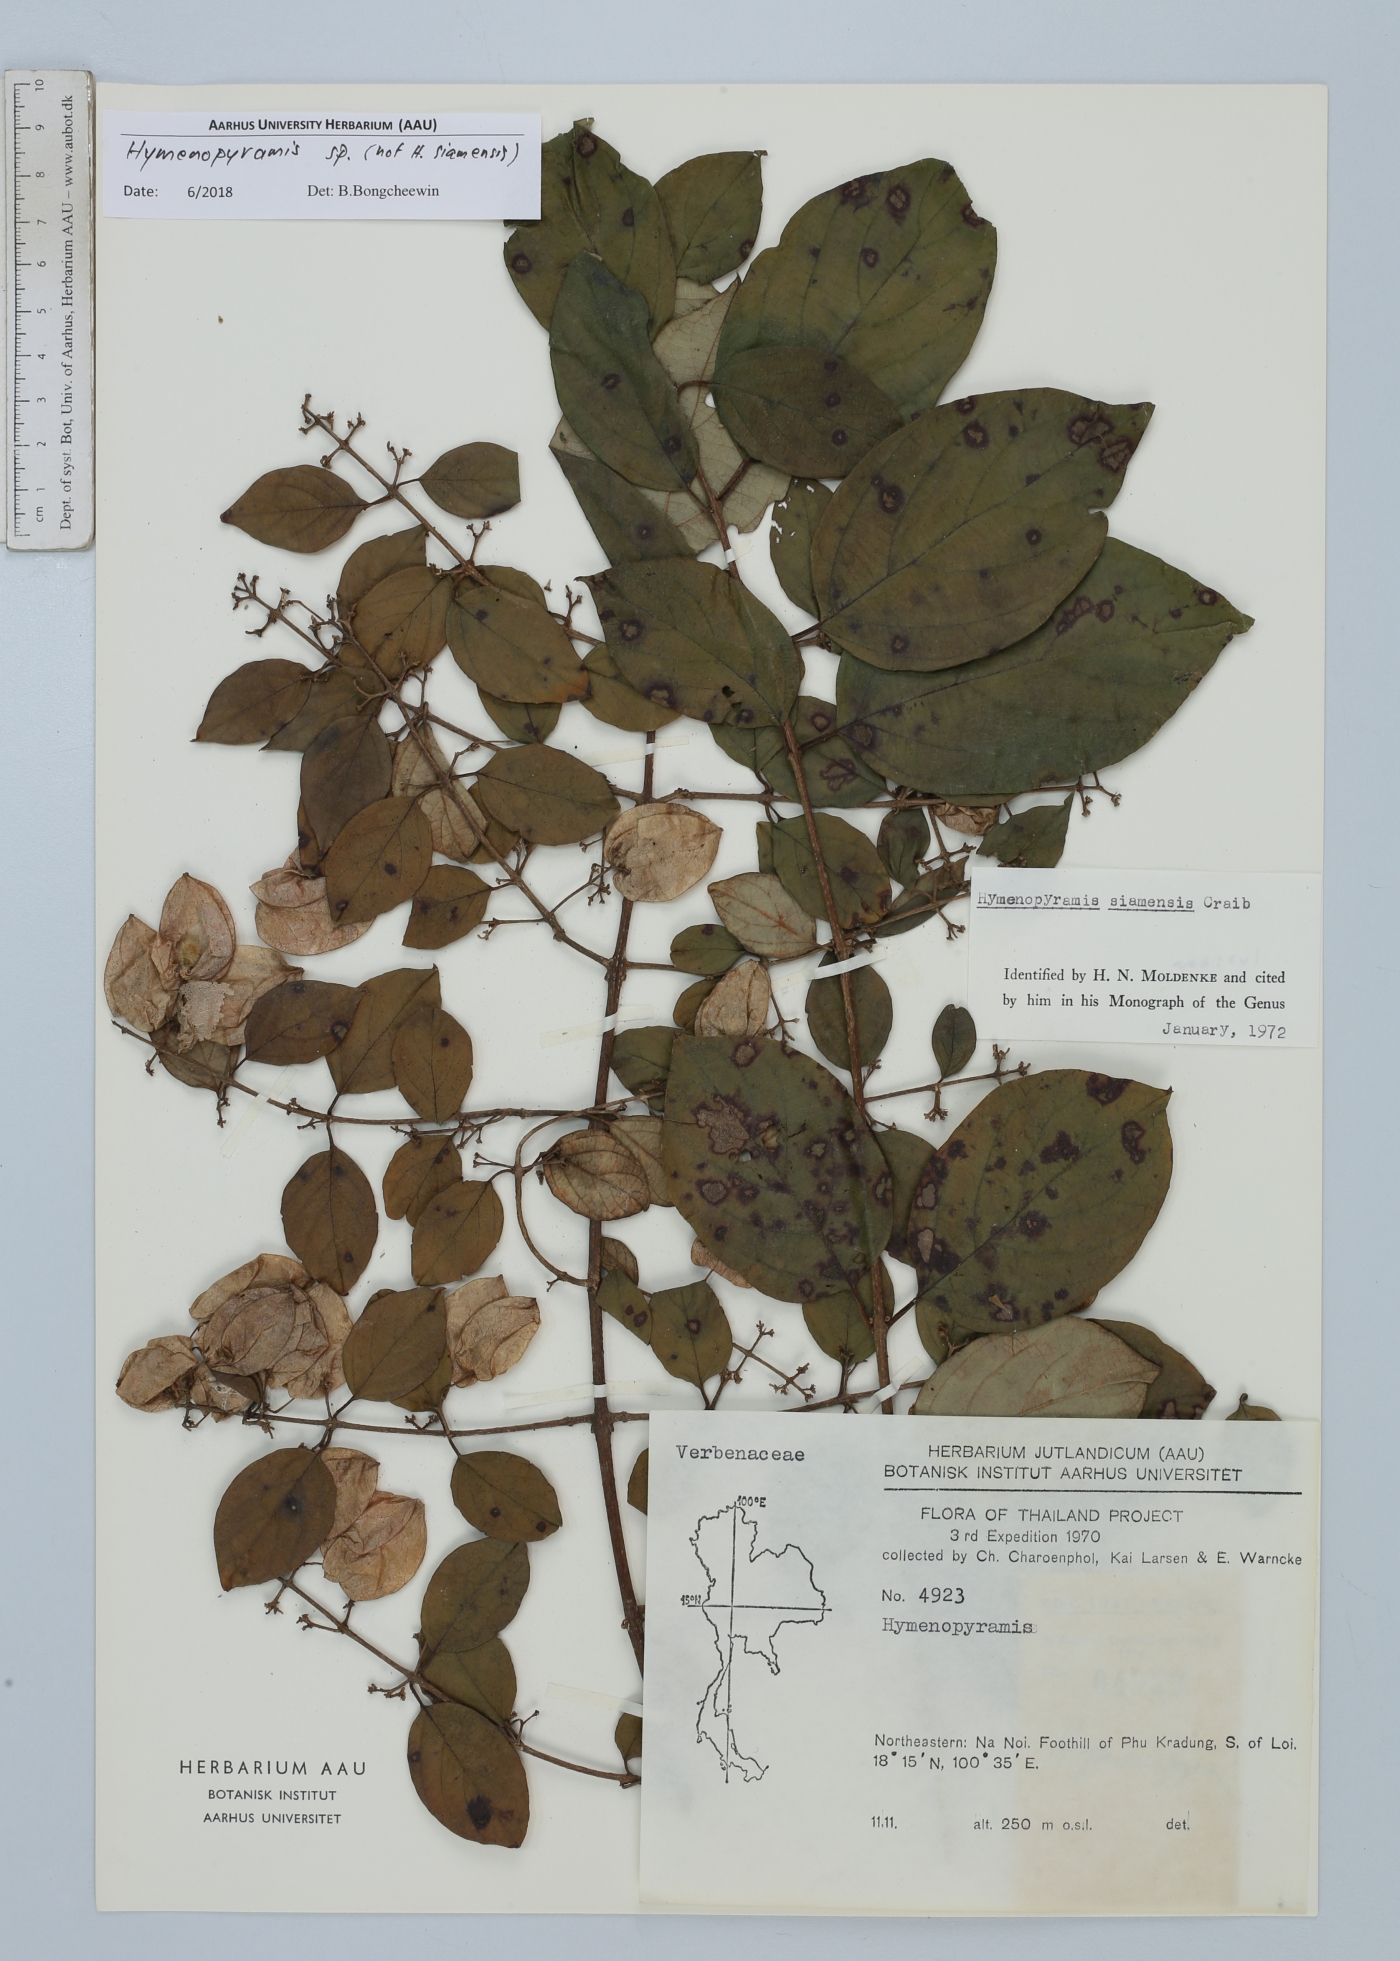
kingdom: Plantae
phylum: Tracheophyta
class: Magnoliopsida
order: Lamiales
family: Lamiaceae
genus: Hymenopyramis
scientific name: Hymenopyramis
